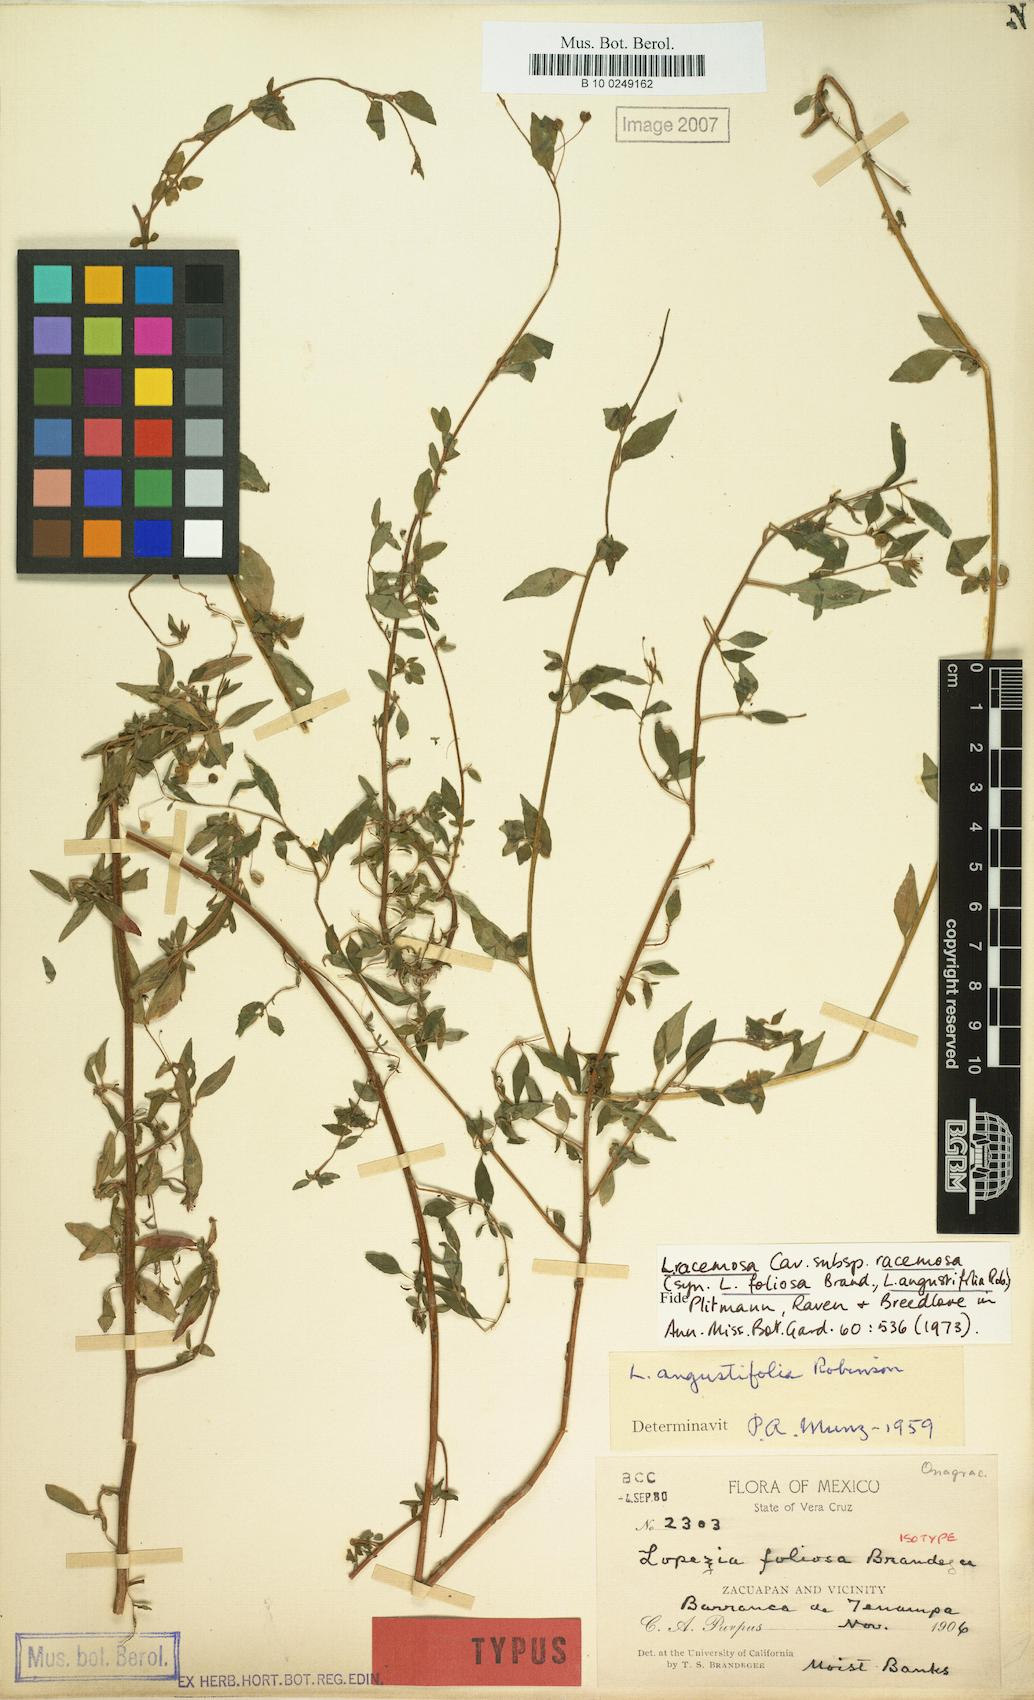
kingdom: Plantae
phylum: Tracheophyta
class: Magnoliopsida
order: Myrtales
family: Onagraceae
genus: Lopezia
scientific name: Lopezia racemosa
